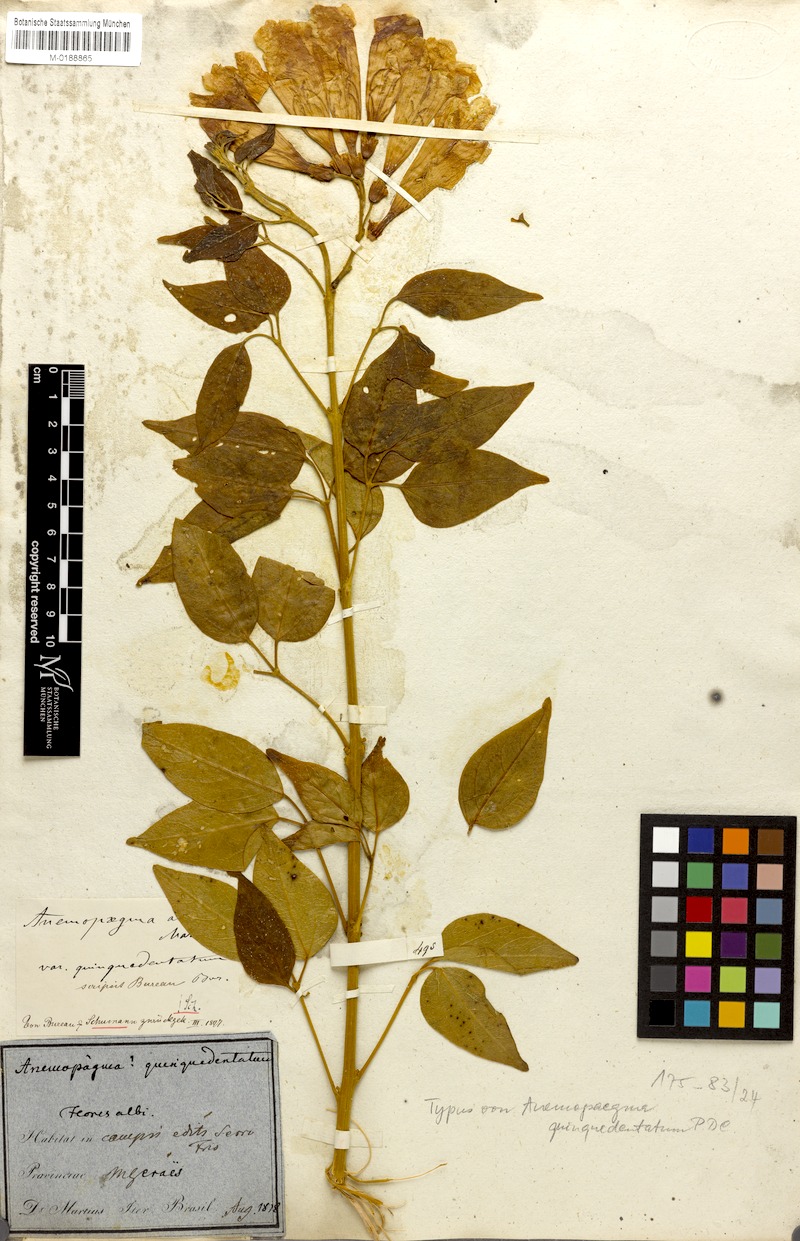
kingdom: Plantae
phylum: Tracheophyta
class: Magnoliopsida
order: Lamiales
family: Bignoniaceae
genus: Anemopaegma
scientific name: Anemopaegma album
